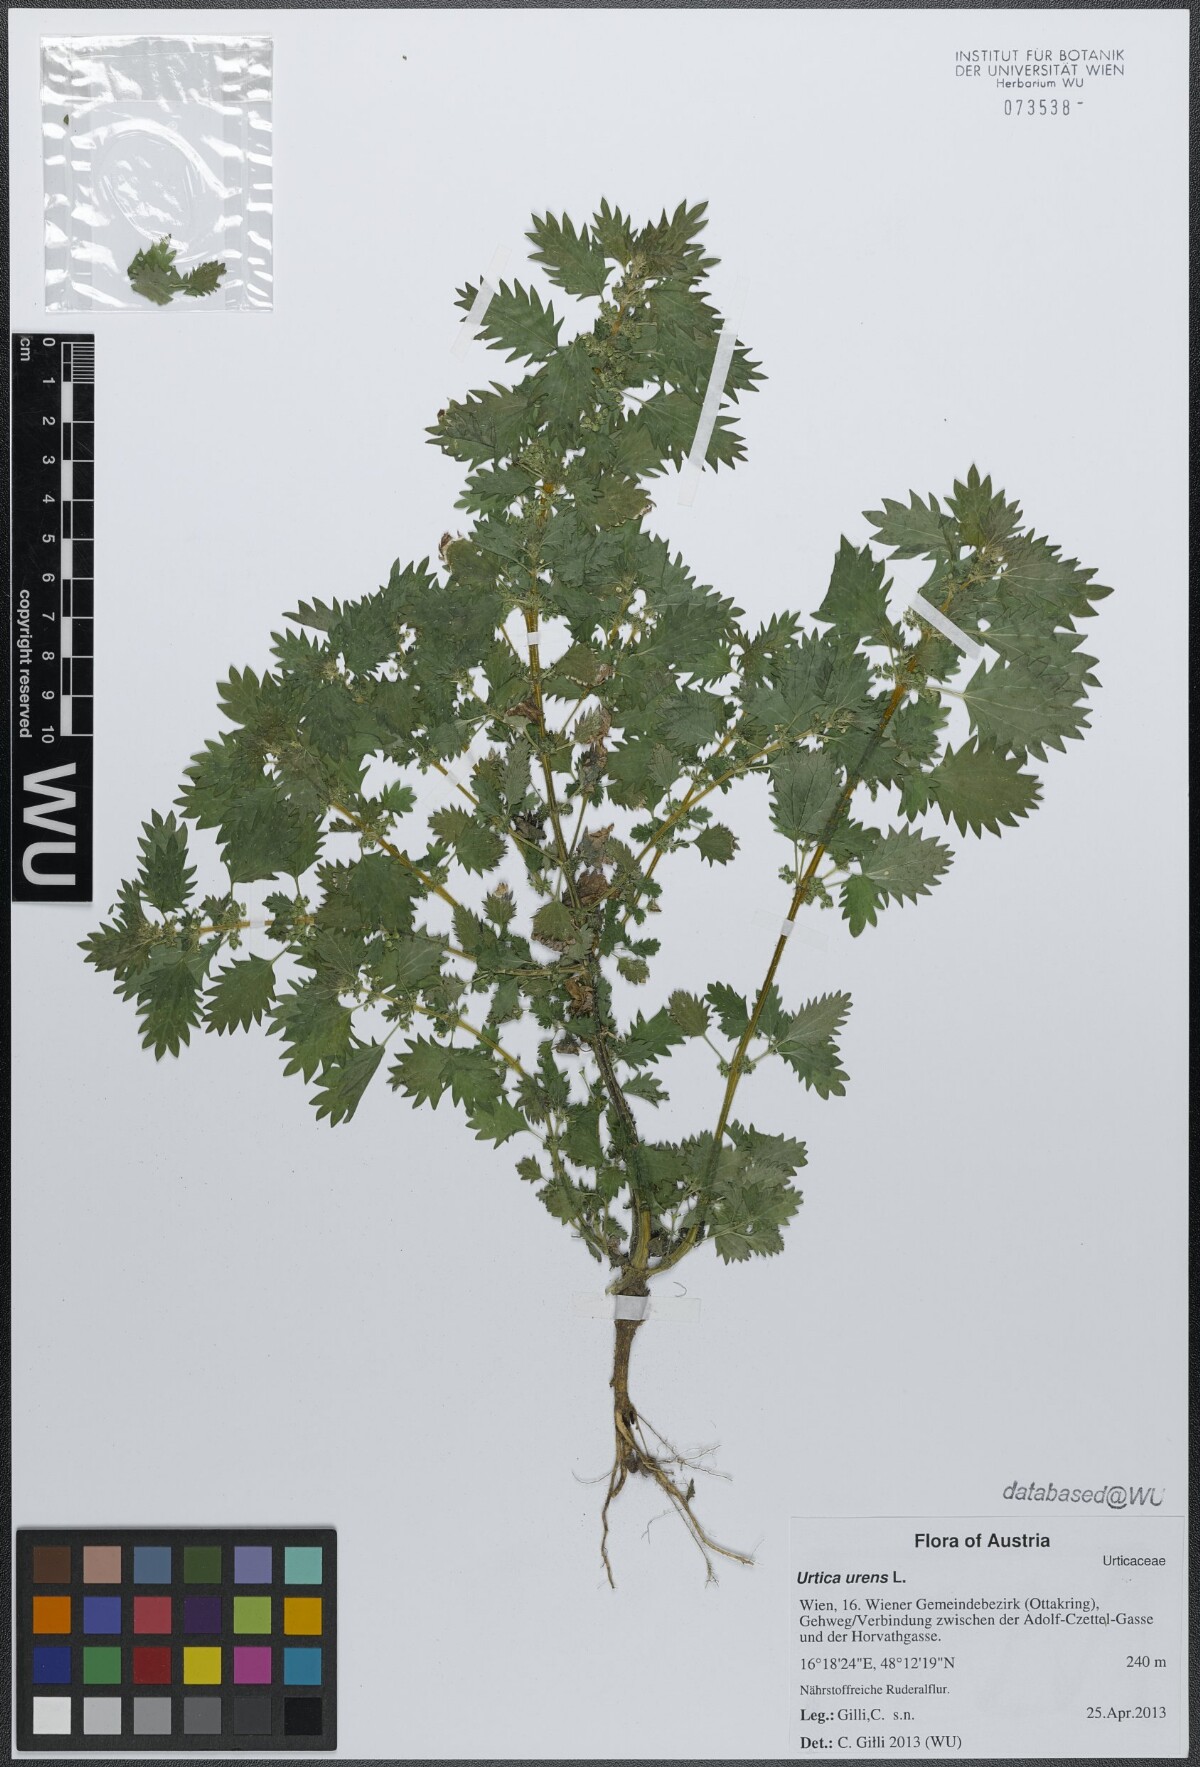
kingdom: Plantae
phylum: Tracheophyta
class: Magnoliopsida
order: Rosales
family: Urticaceae
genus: Urtica
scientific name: Urtica urens
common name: Dwarf nettle
